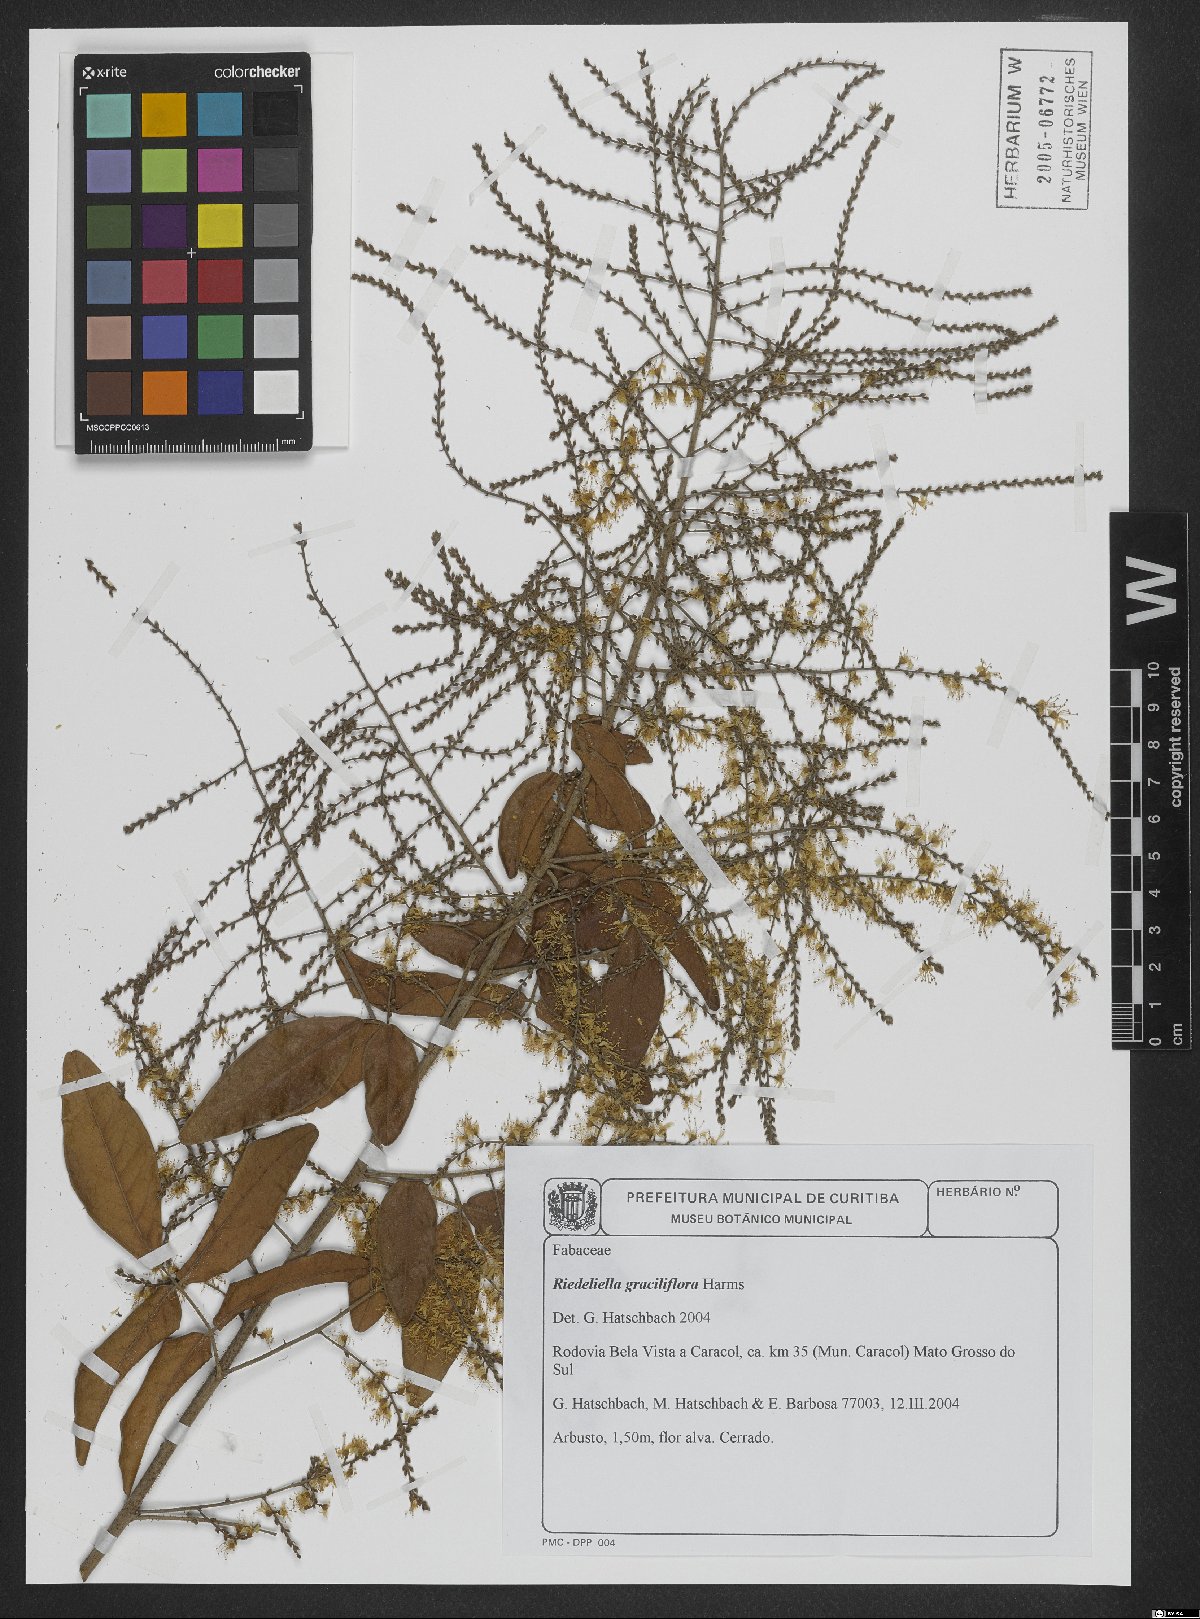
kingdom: Plantae
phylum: Tracheophyta
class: Magnoliopsida
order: Fabales
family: Fabaceae
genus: Riedeliella
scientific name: Riedeliella graciliflora
